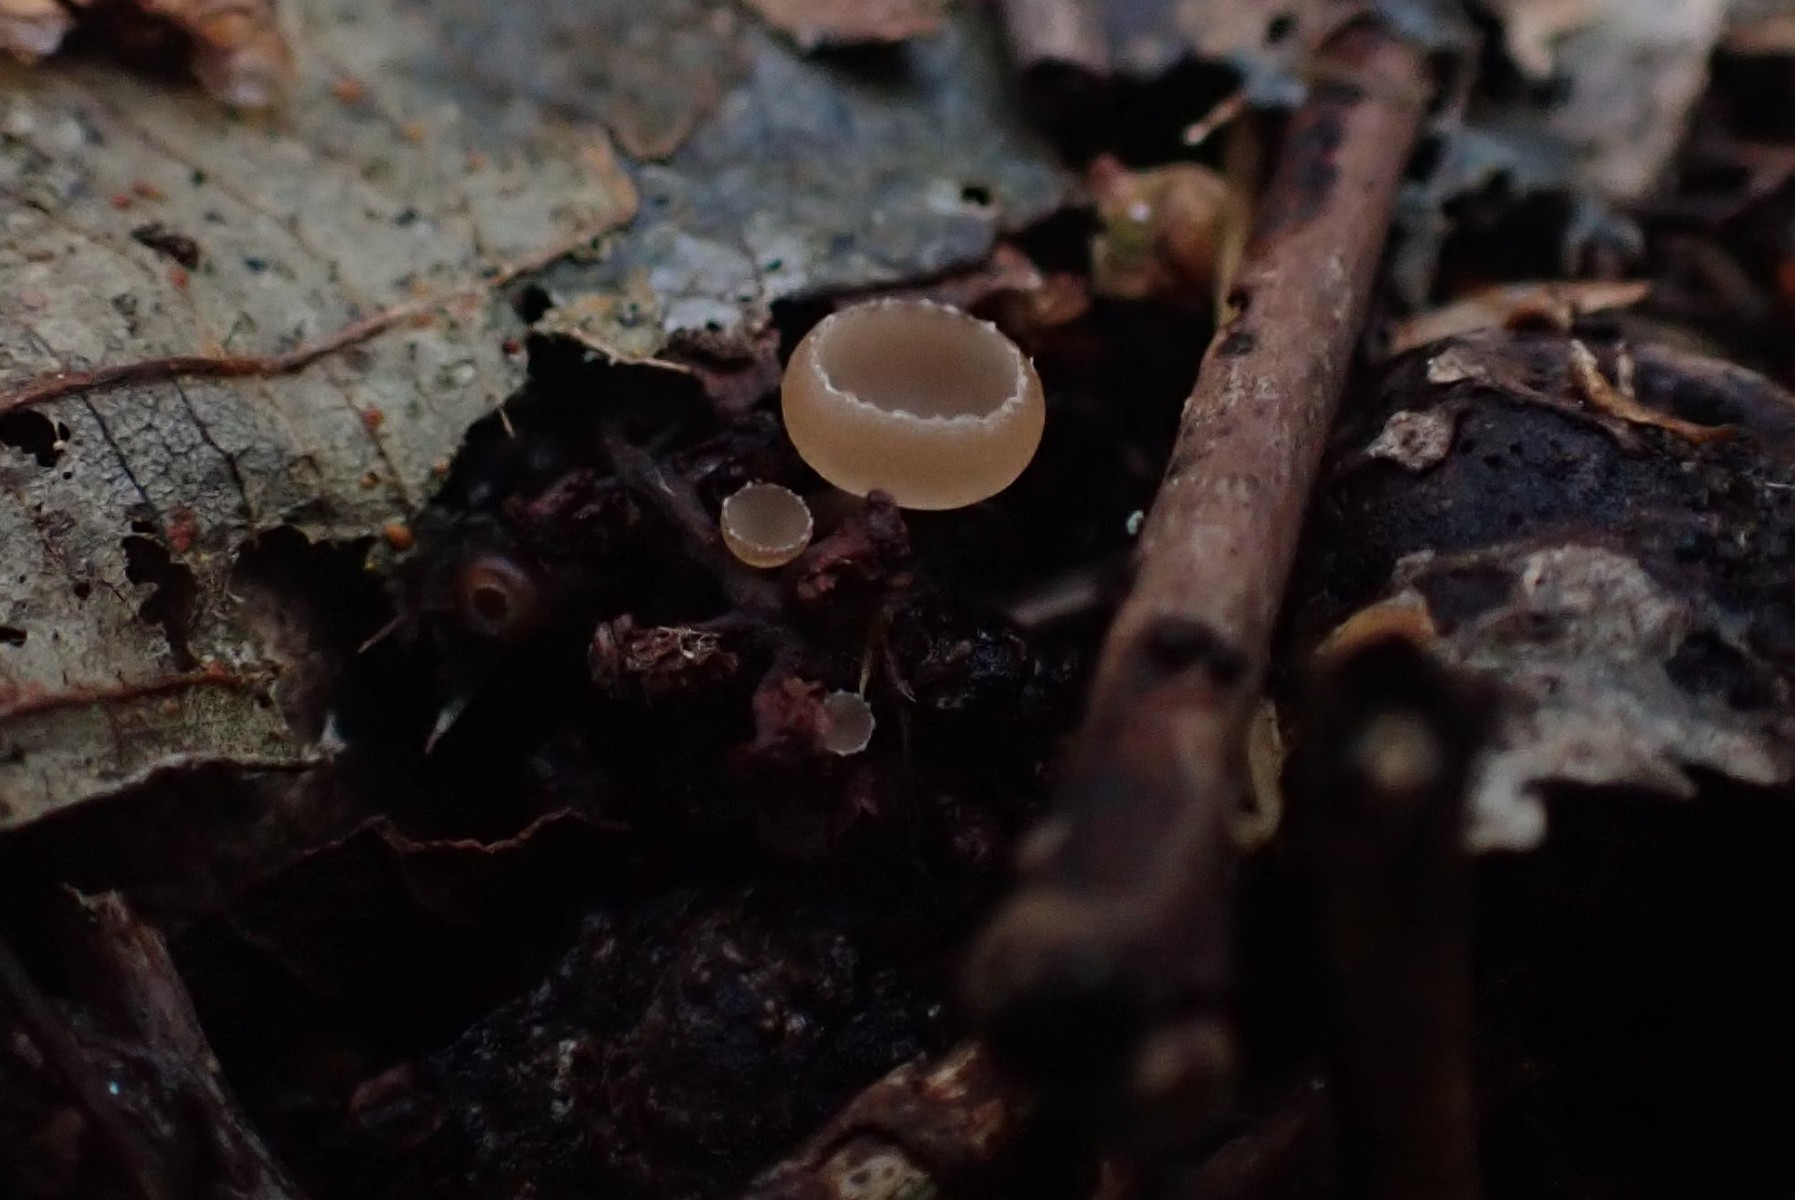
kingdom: Fungi
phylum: Ascomycota
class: Leotiomycetes
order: Helotiales
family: Sclerotiniaceae
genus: Ciboria
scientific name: Ciboria amentacea
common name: ellerakle-knoldskive
